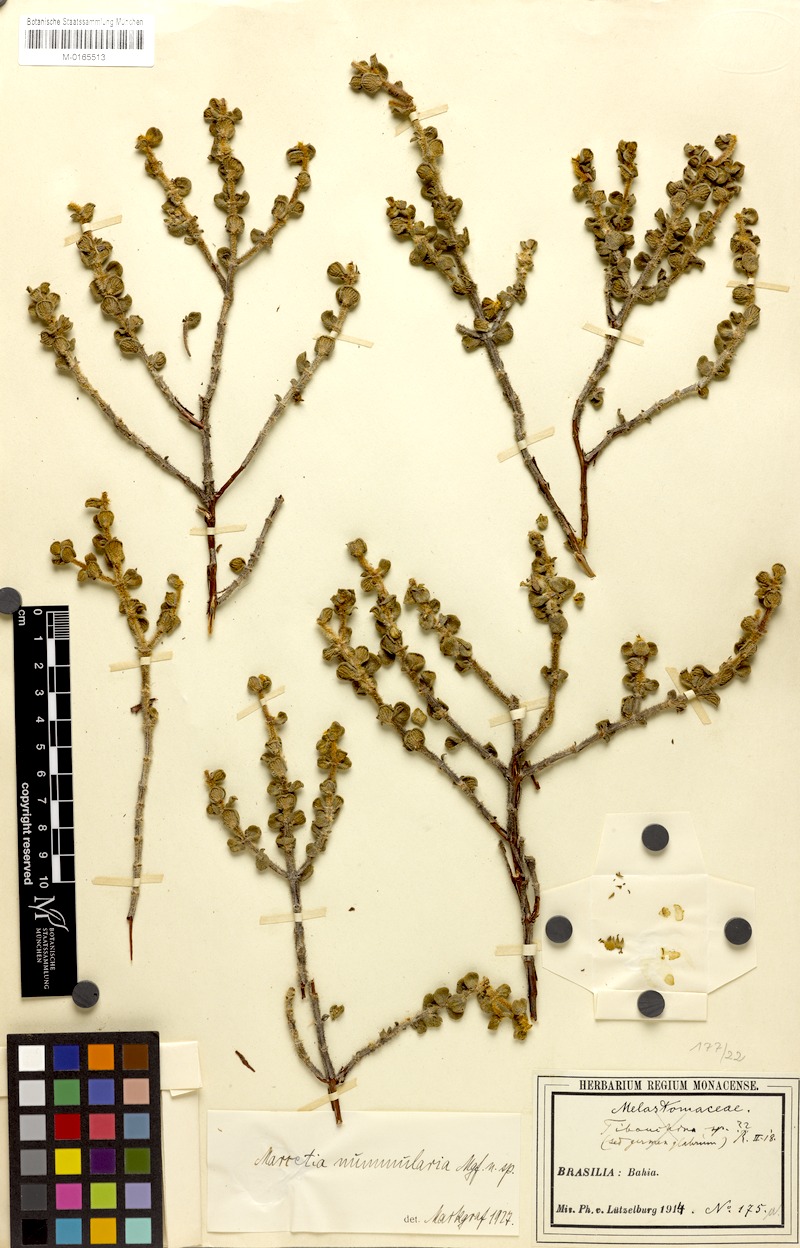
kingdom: Plantae
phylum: Tracheophyta
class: Magnoliopsida
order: Myrtales
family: Melastomataceae
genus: Marcetia
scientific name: Marcetia nummularia
